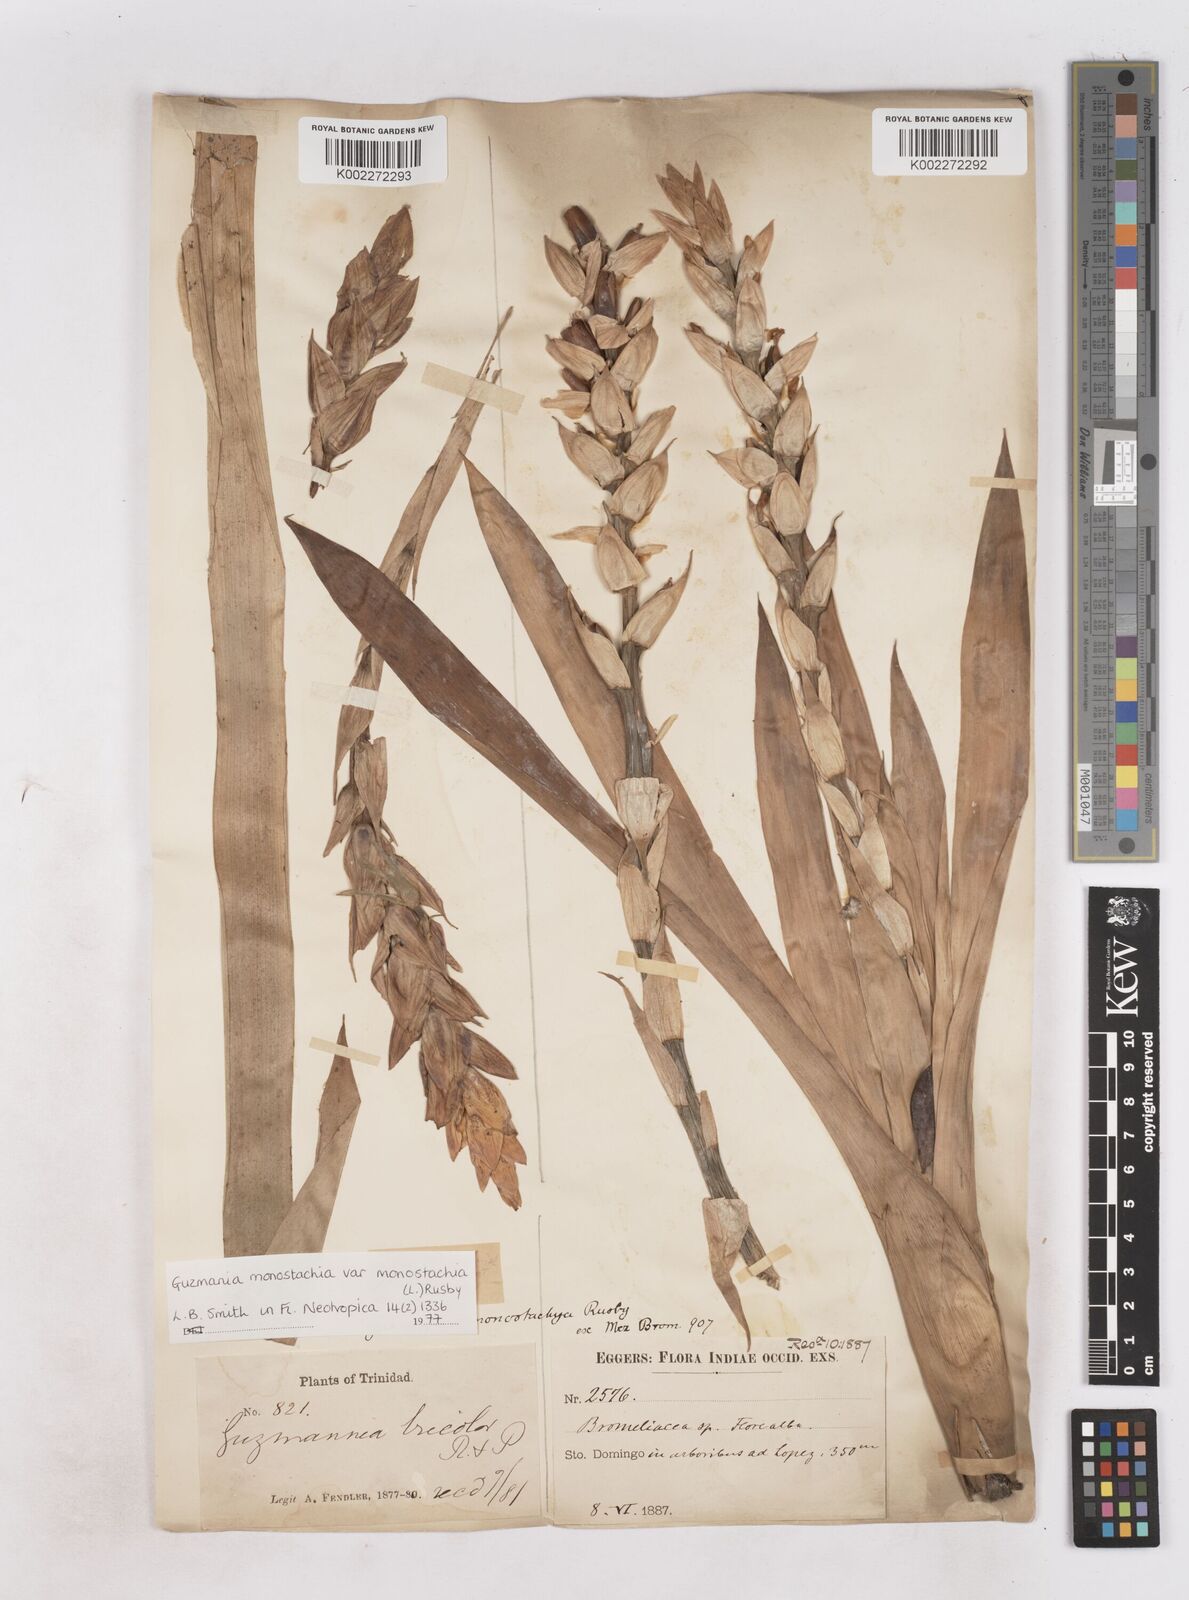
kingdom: Plantae
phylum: Tracheophyta
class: Liliopsida
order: Poales
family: Bromeliaceae
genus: Guzmania
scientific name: Guzmania monostachia
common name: West indian tufted airplant
